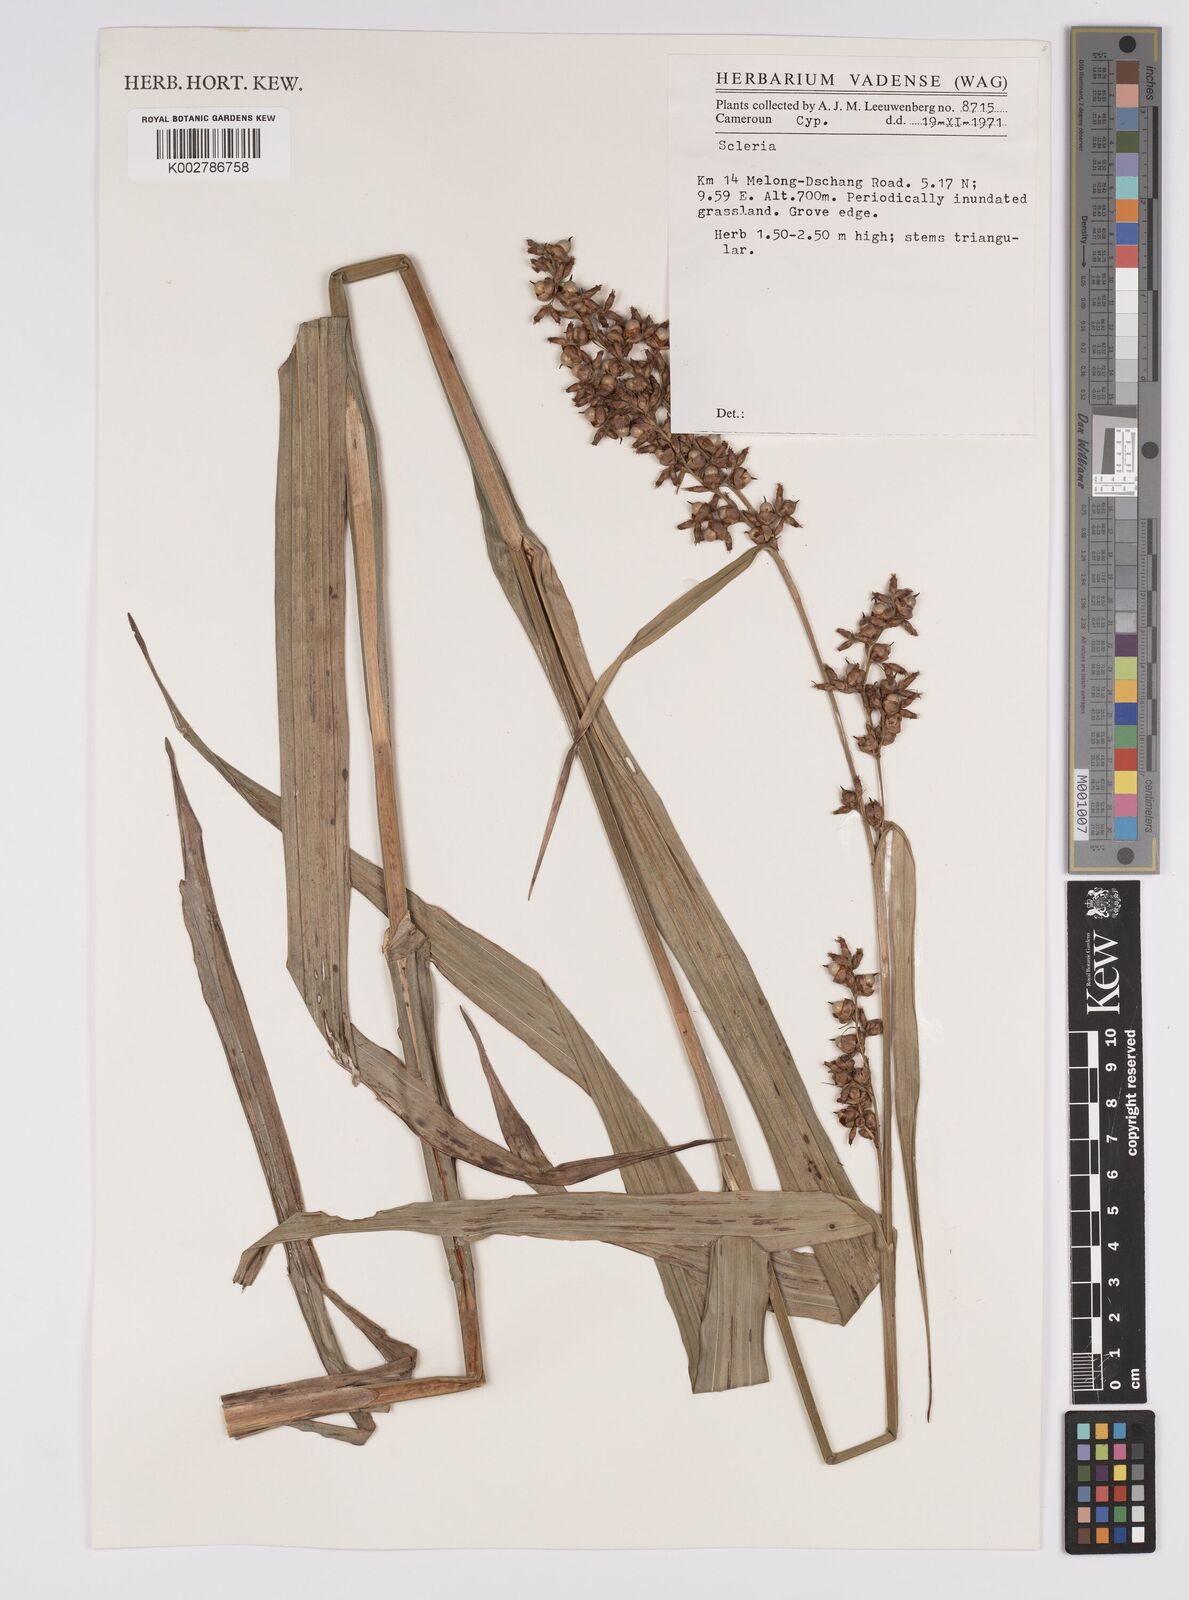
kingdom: Plantae
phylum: Tracheophyta
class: Liliopsida
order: Poales
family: Cyperaceae
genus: Scleria
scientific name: Scleria
